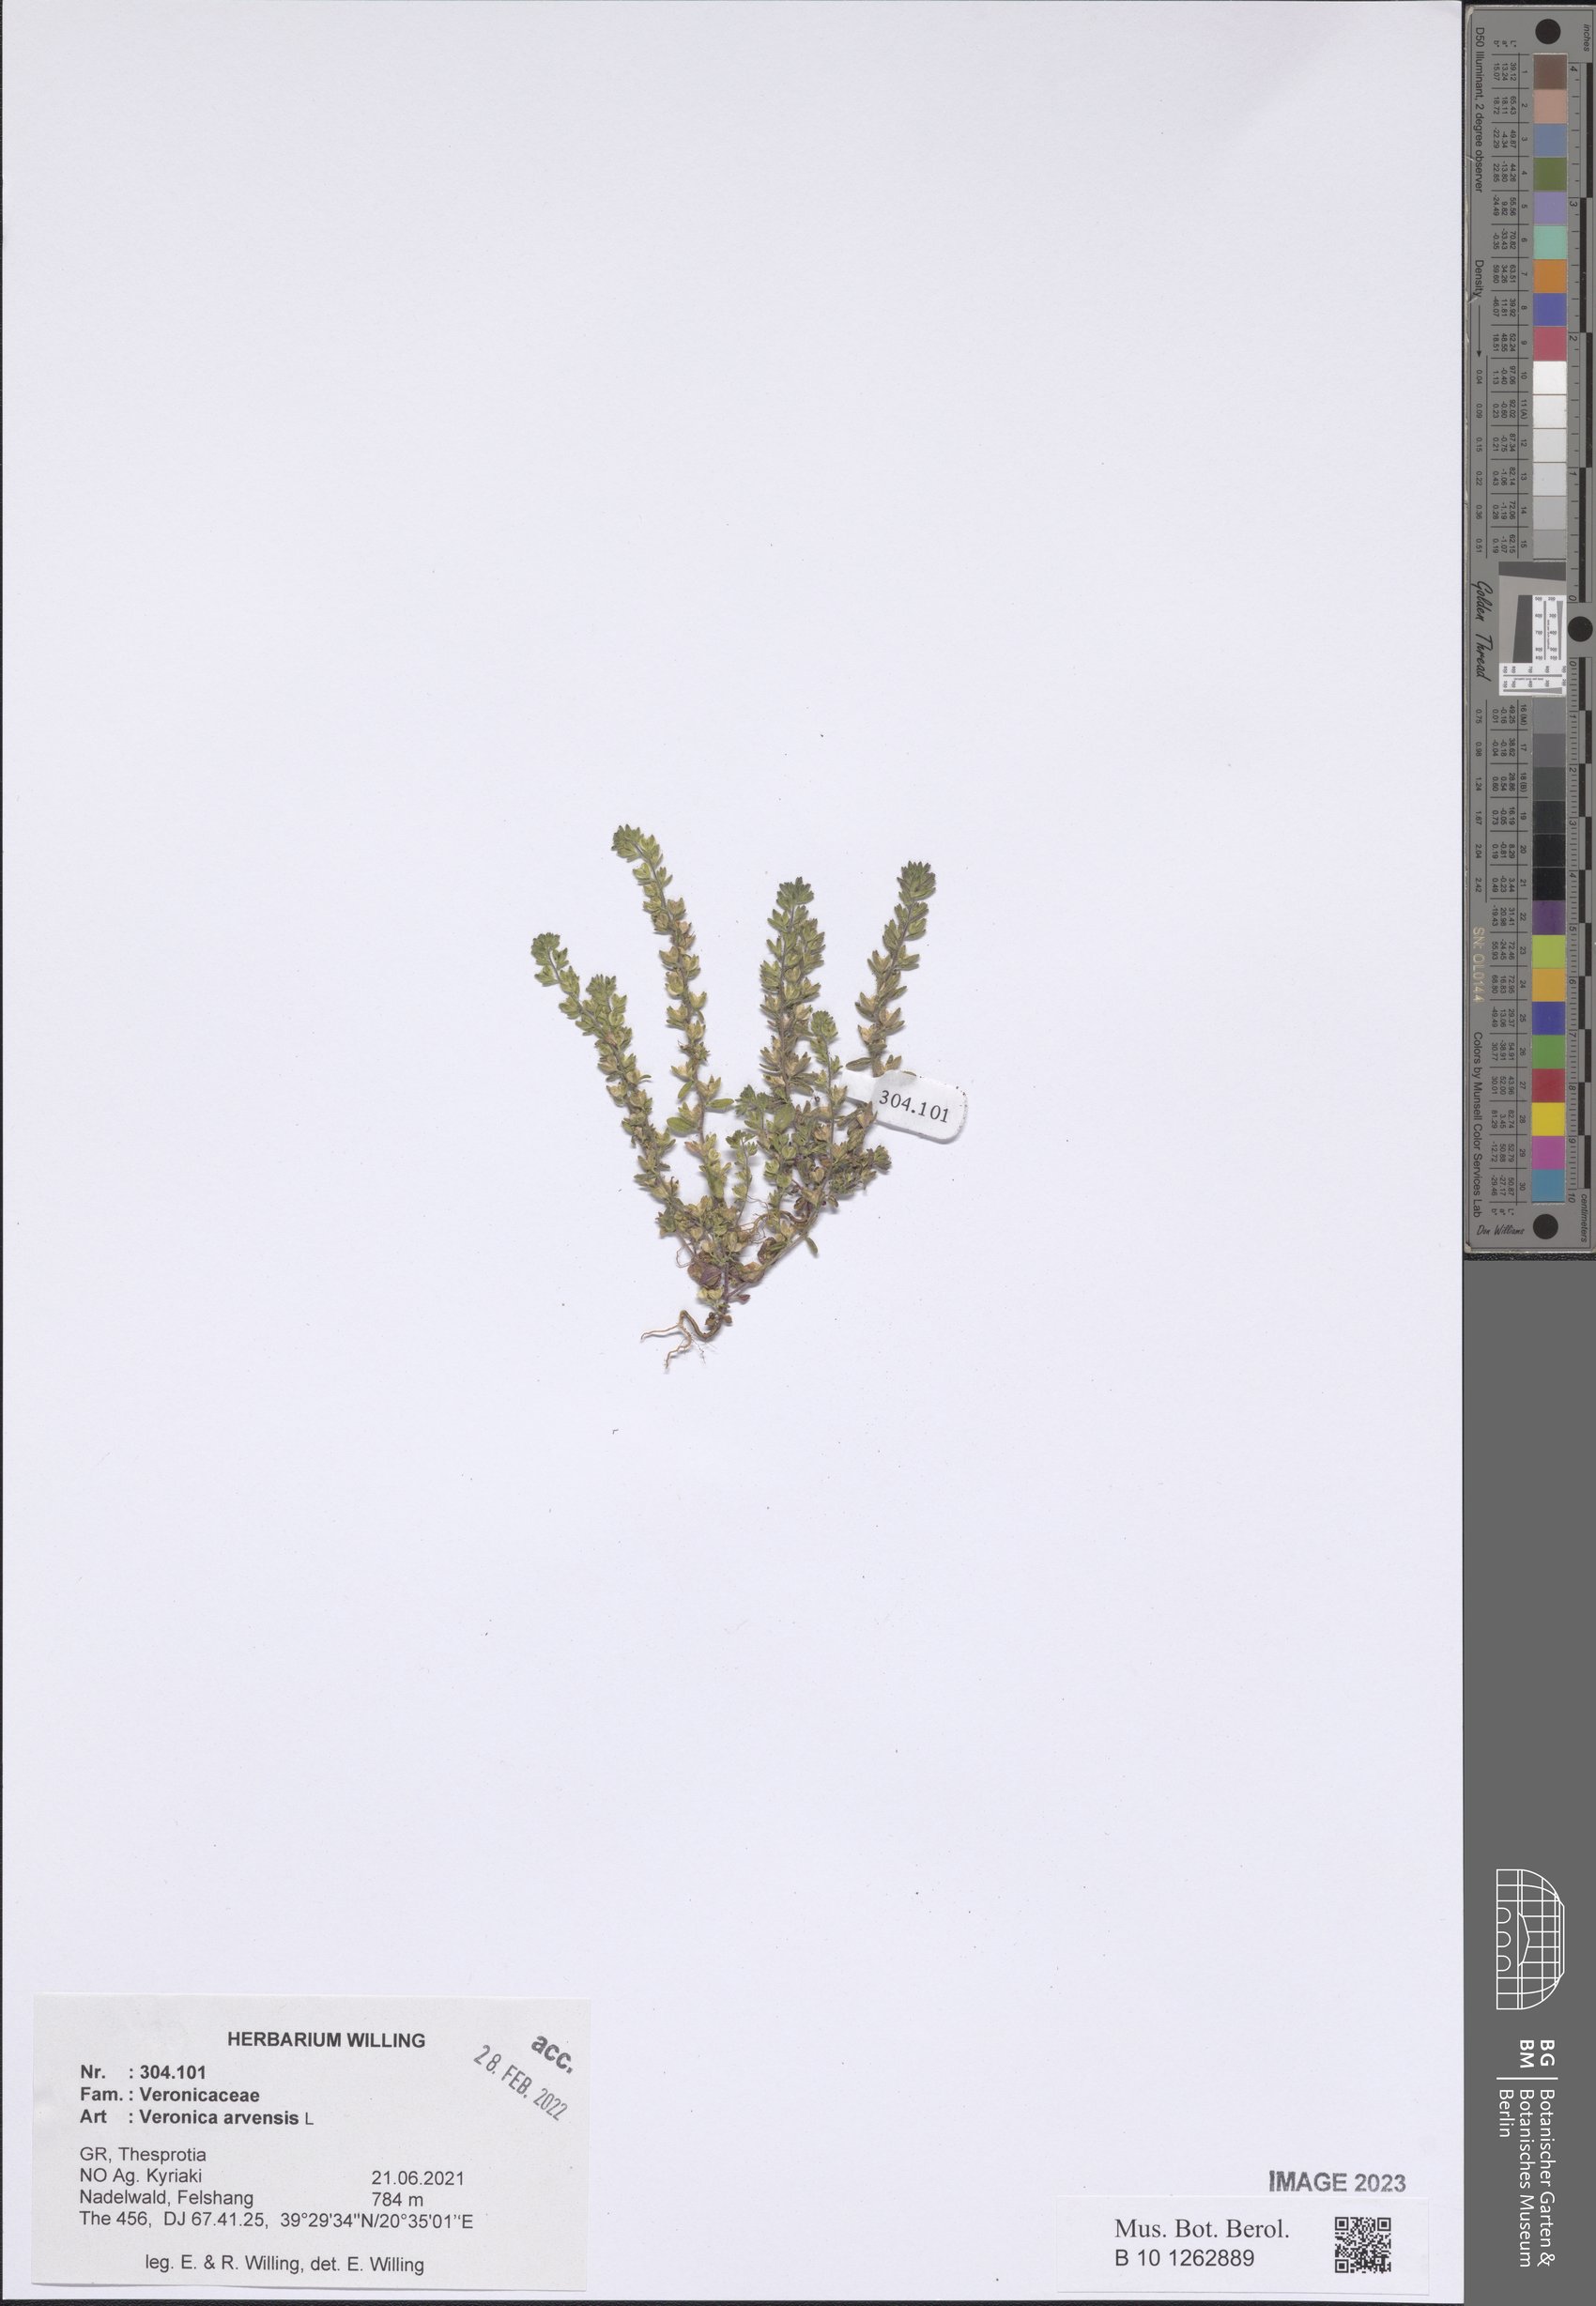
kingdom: Plantae
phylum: Tracheophyta
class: Magnoliopsida
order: Lamiales
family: Plantaginaceae
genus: Veronica
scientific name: Veronica arvensis
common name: Corn speedwell
